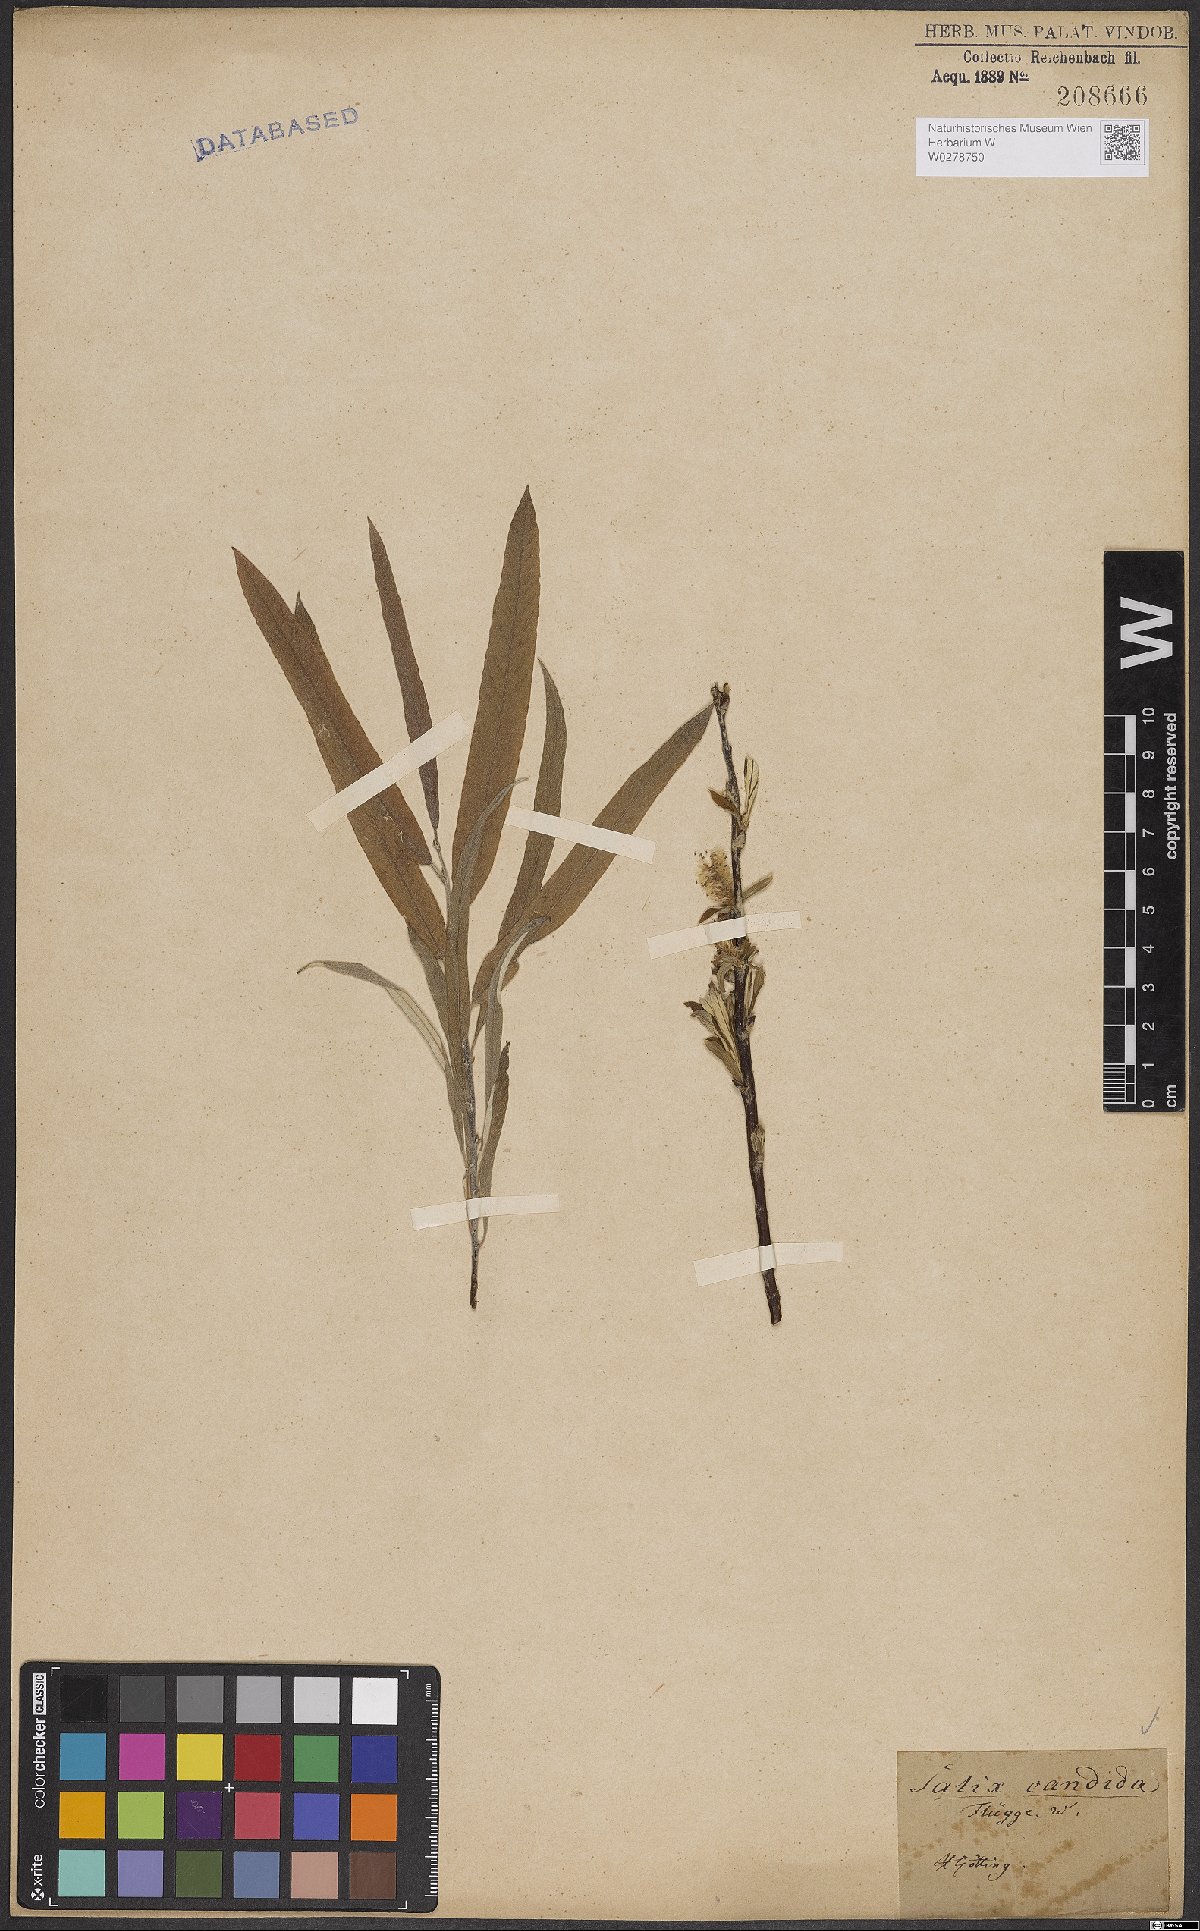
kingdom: Plantae
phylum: Tracheophyta
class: Magnoliopsida
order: Malpighiales
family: Salicaceae
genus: Salix
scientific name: Salix candida
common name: Hoary willow
